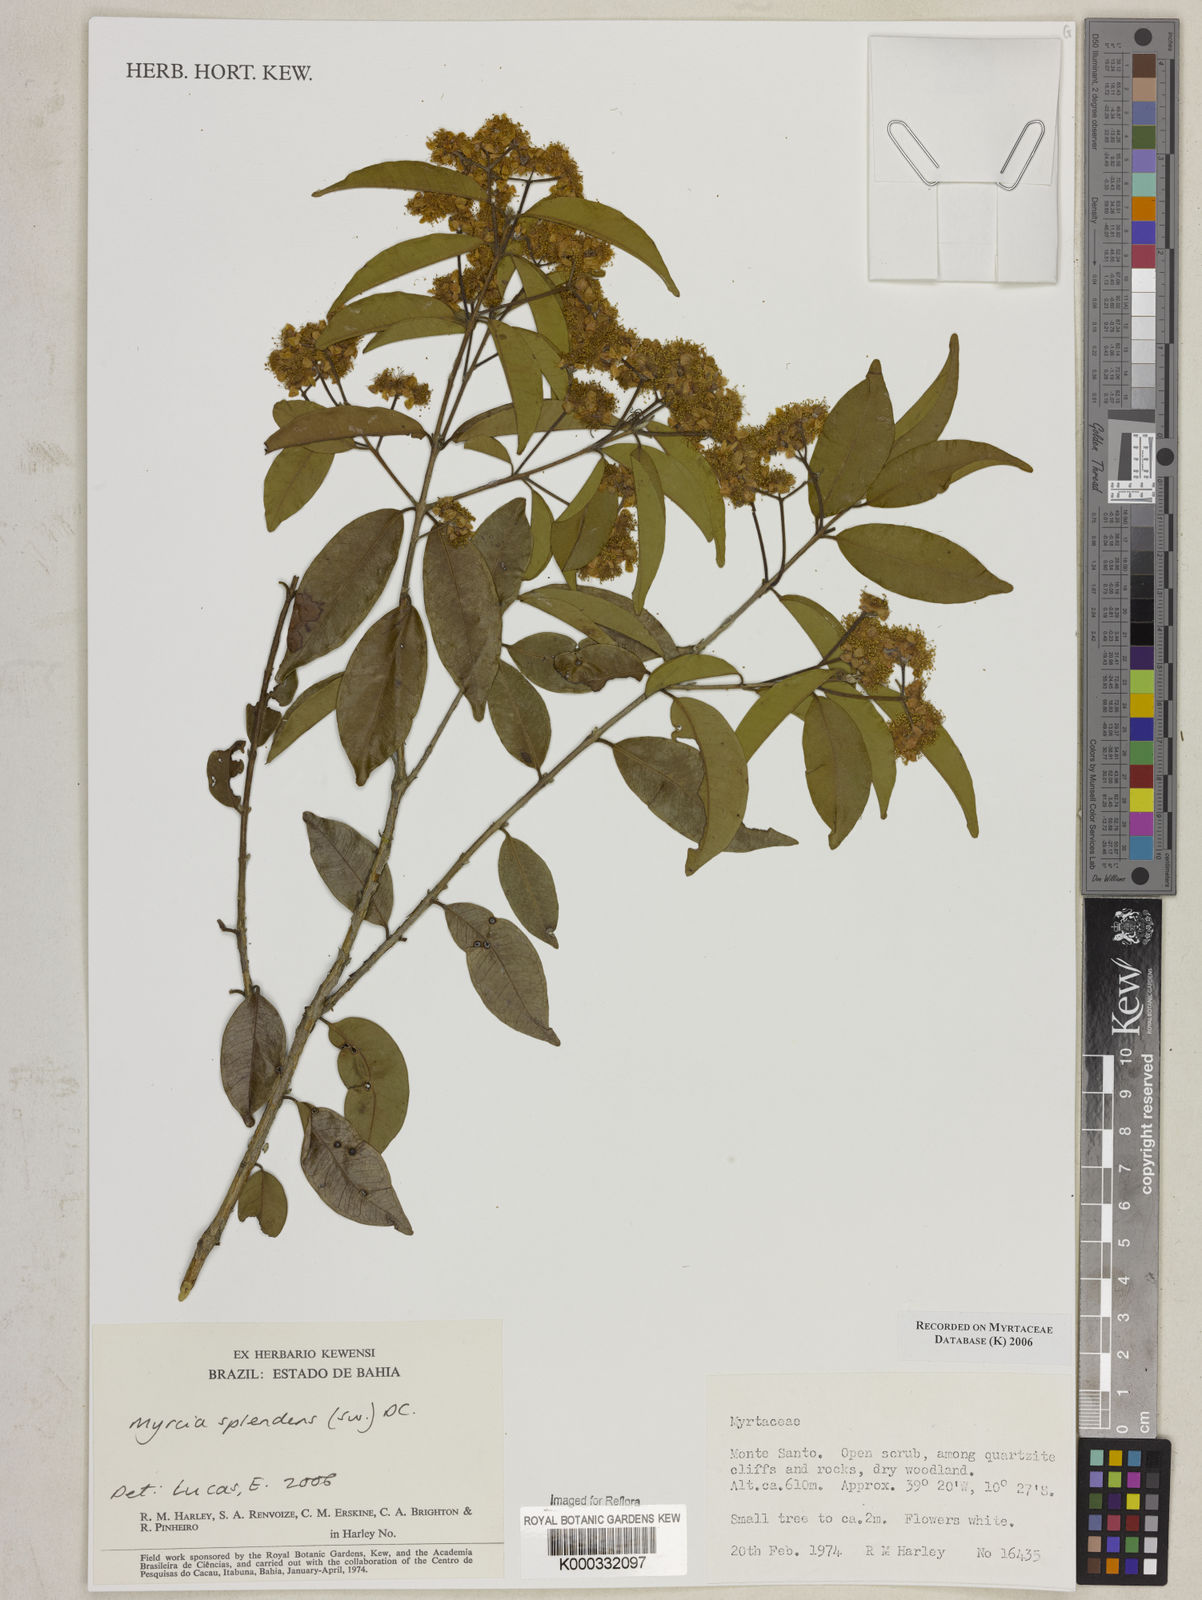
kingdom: Plantae
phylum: Tracheophyta
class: Magnoliopsida
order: Myrtales
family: Myrtaceae
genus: Myrcia
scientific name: Myrcia splendens
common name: Surinam cherry
